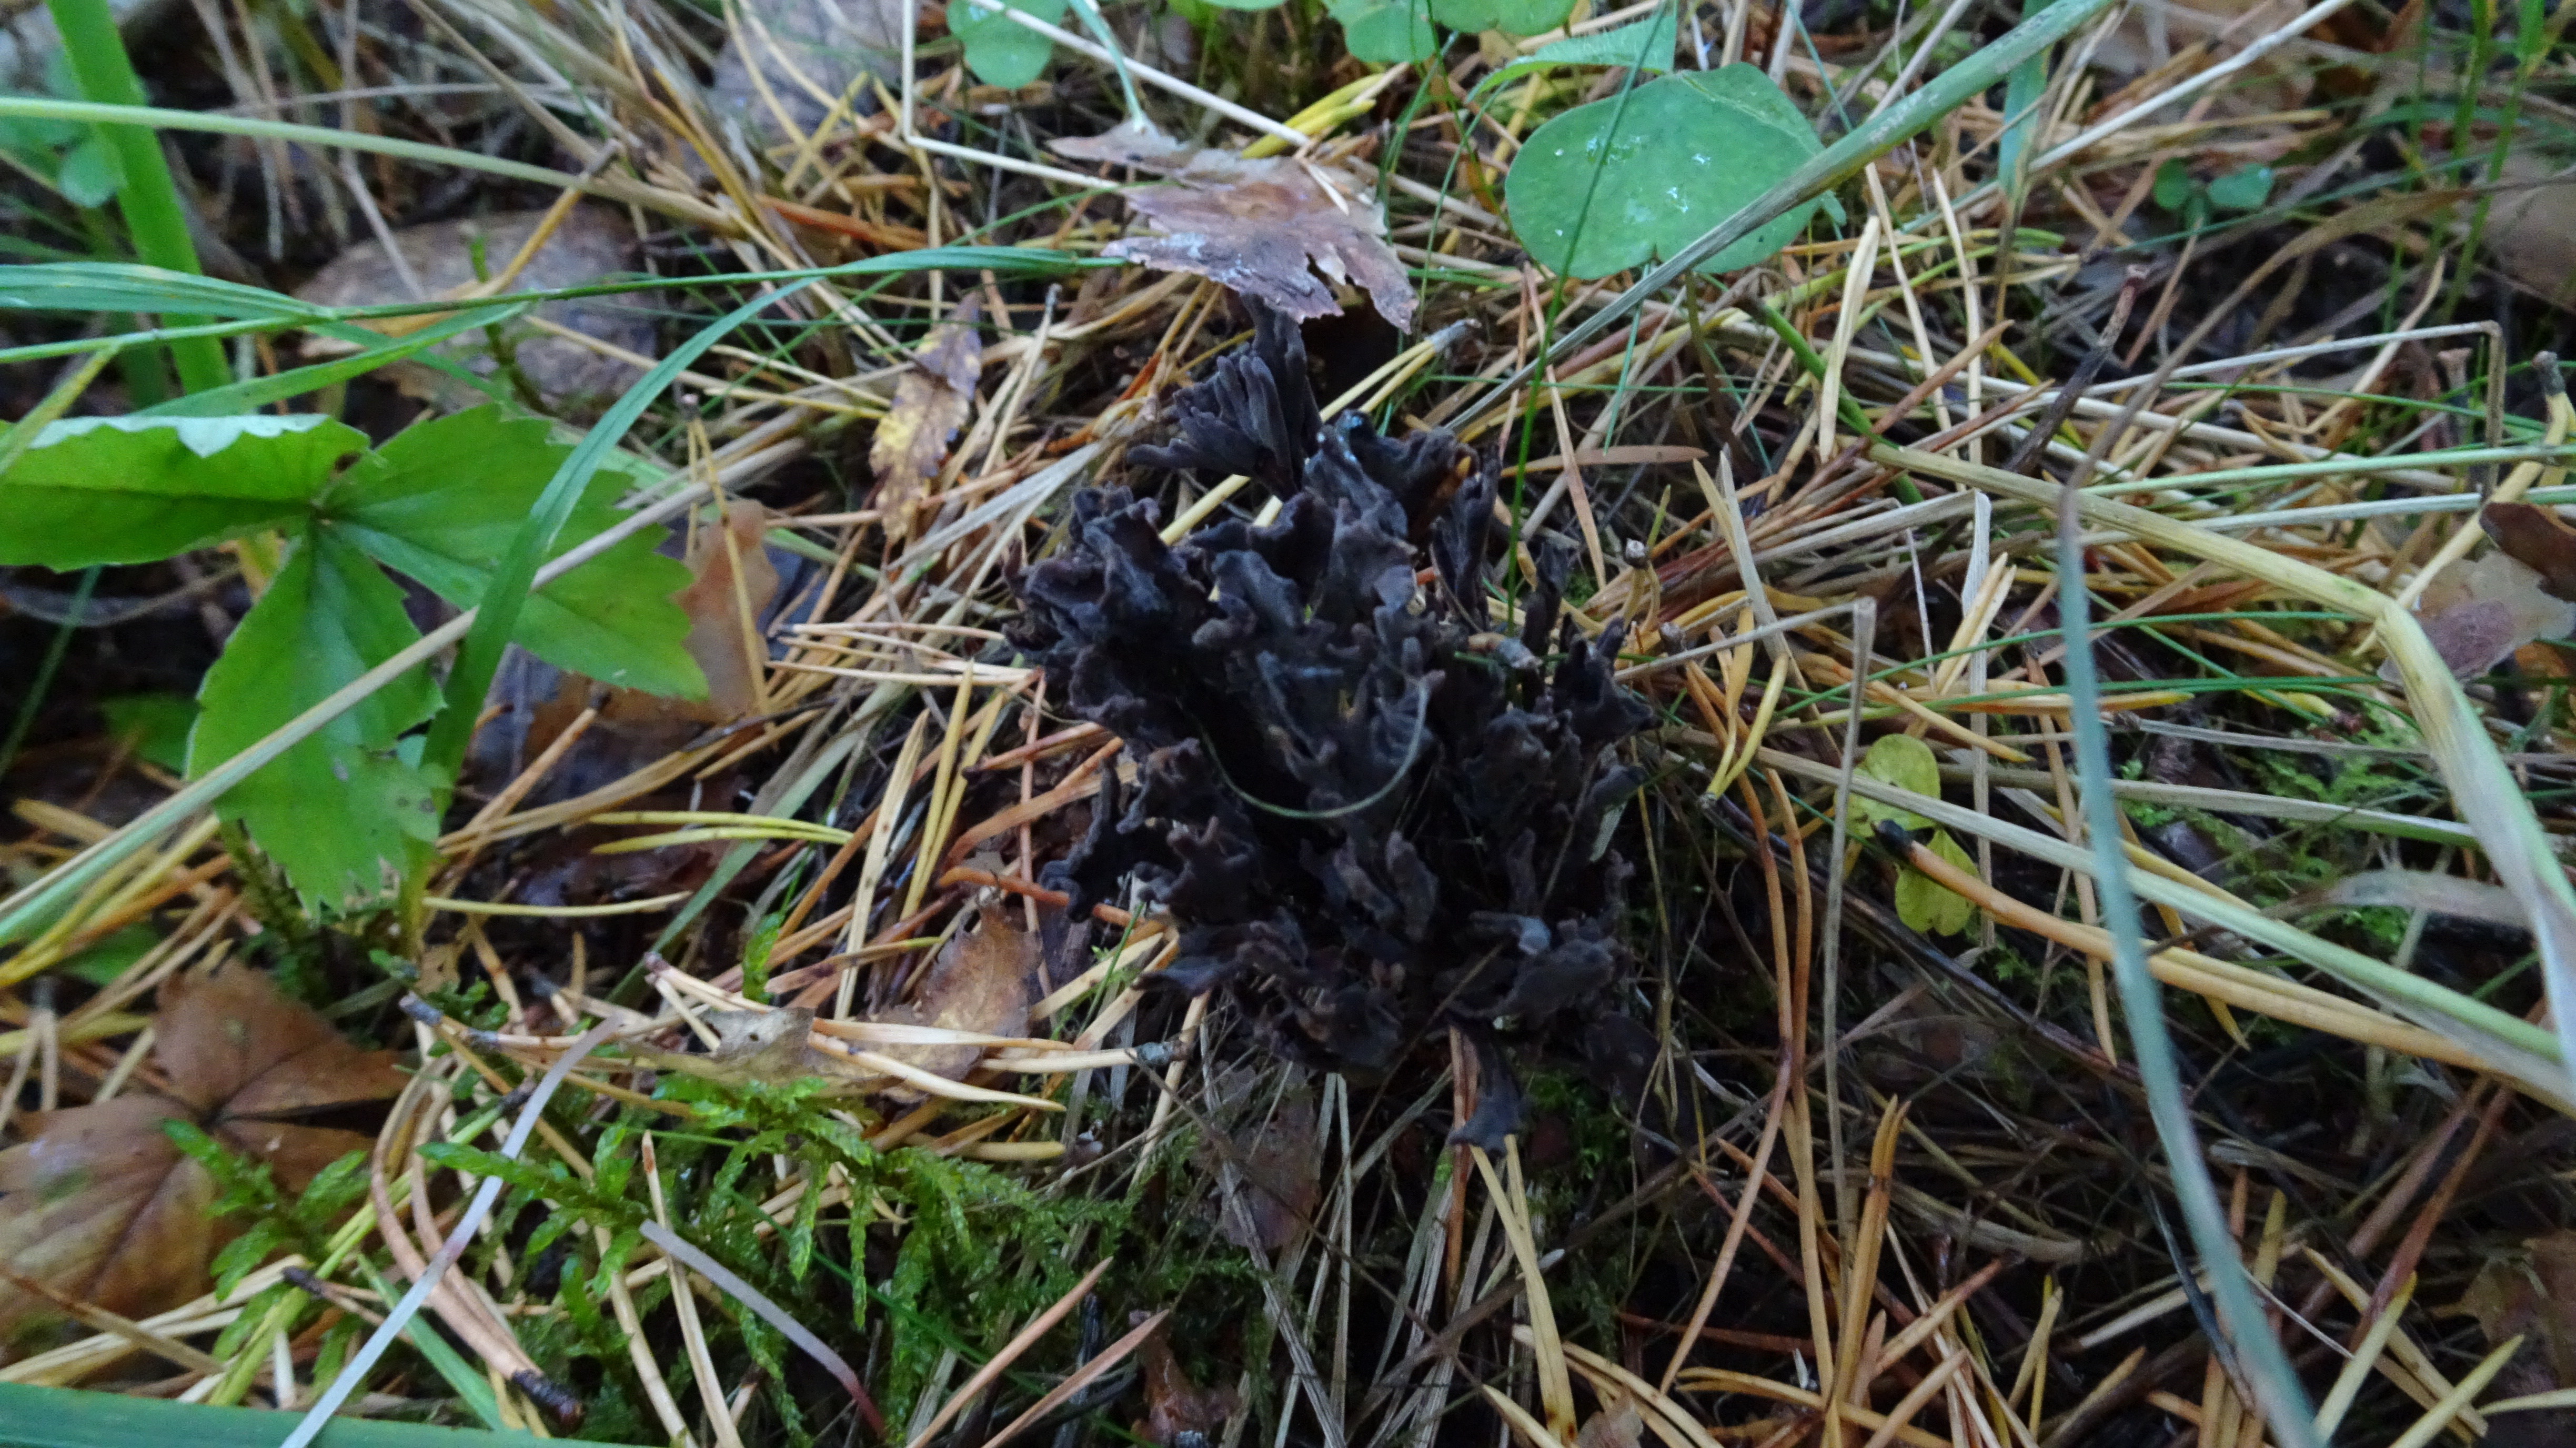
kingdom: Fungi
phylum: Basidiomycota
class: Agaricomycetes
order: Thelephorales
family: Thelephoraceae
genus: Thelephora
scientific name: Thelephora palmata
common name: Stinking earthfan
